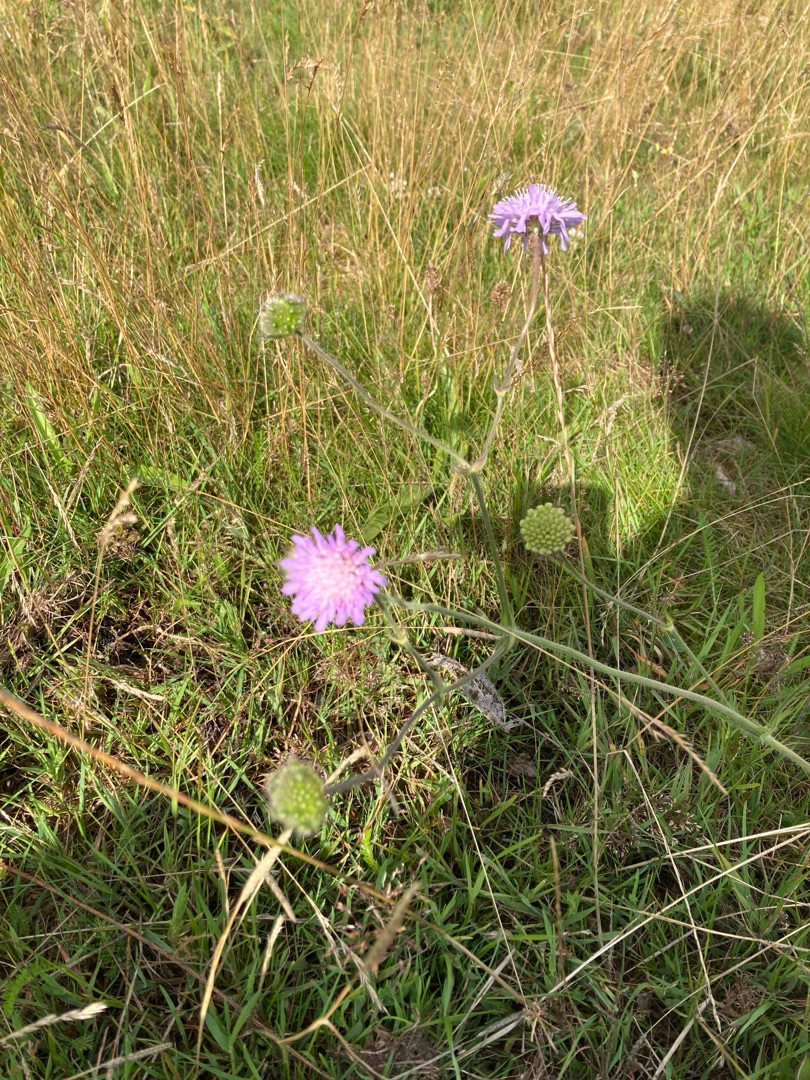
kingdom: Plantae
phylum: Tracheophyta
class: Magnoliopsida
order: Dipsacales
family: Caprifoliaceae
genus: Knautia
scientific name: Knautia arvensis
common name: Blåhat
